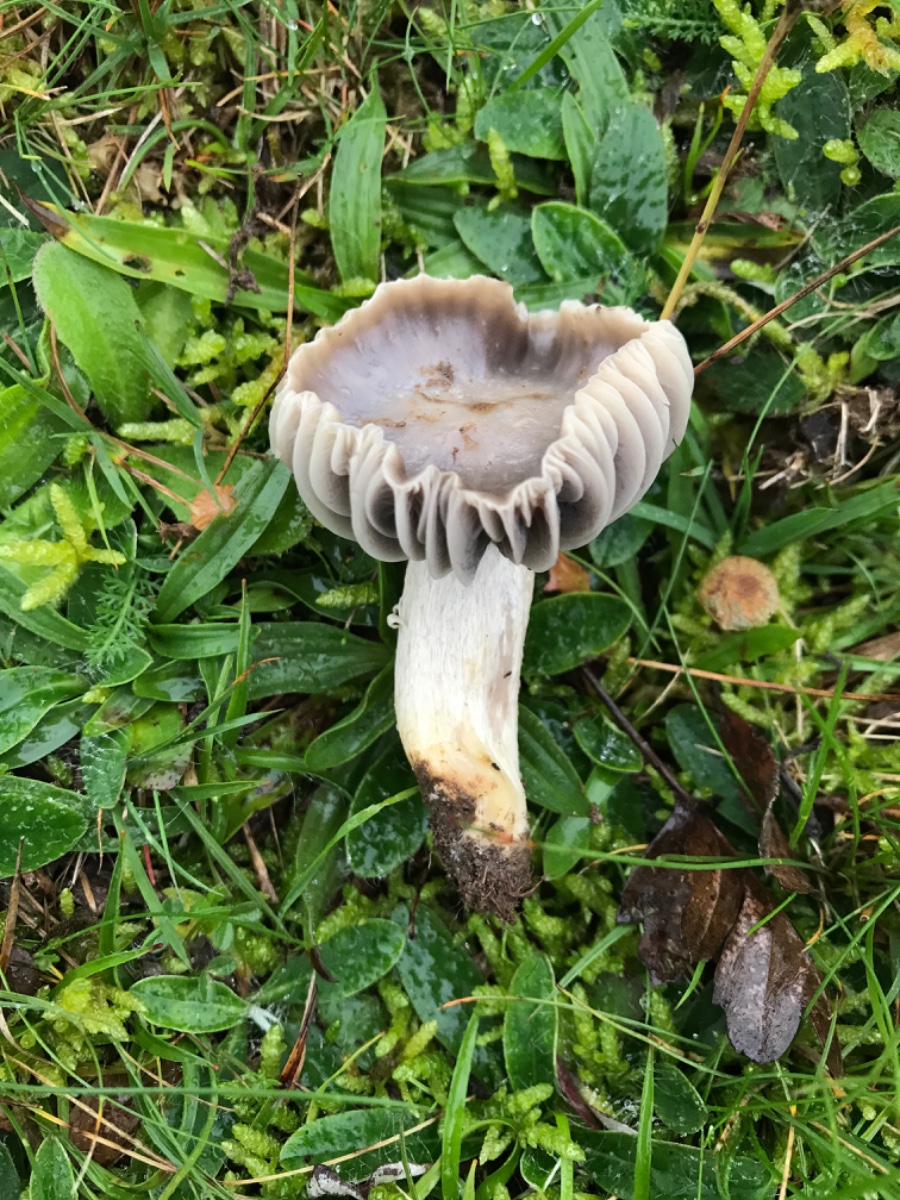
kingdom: Fungi
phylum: Basidiomycota
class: Agaricomycetes
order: Agaricales
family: Hygrophoraceae
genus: Cuphophyllus
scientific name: Cuphophyllus flavipes
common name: gulfodet vokshat
